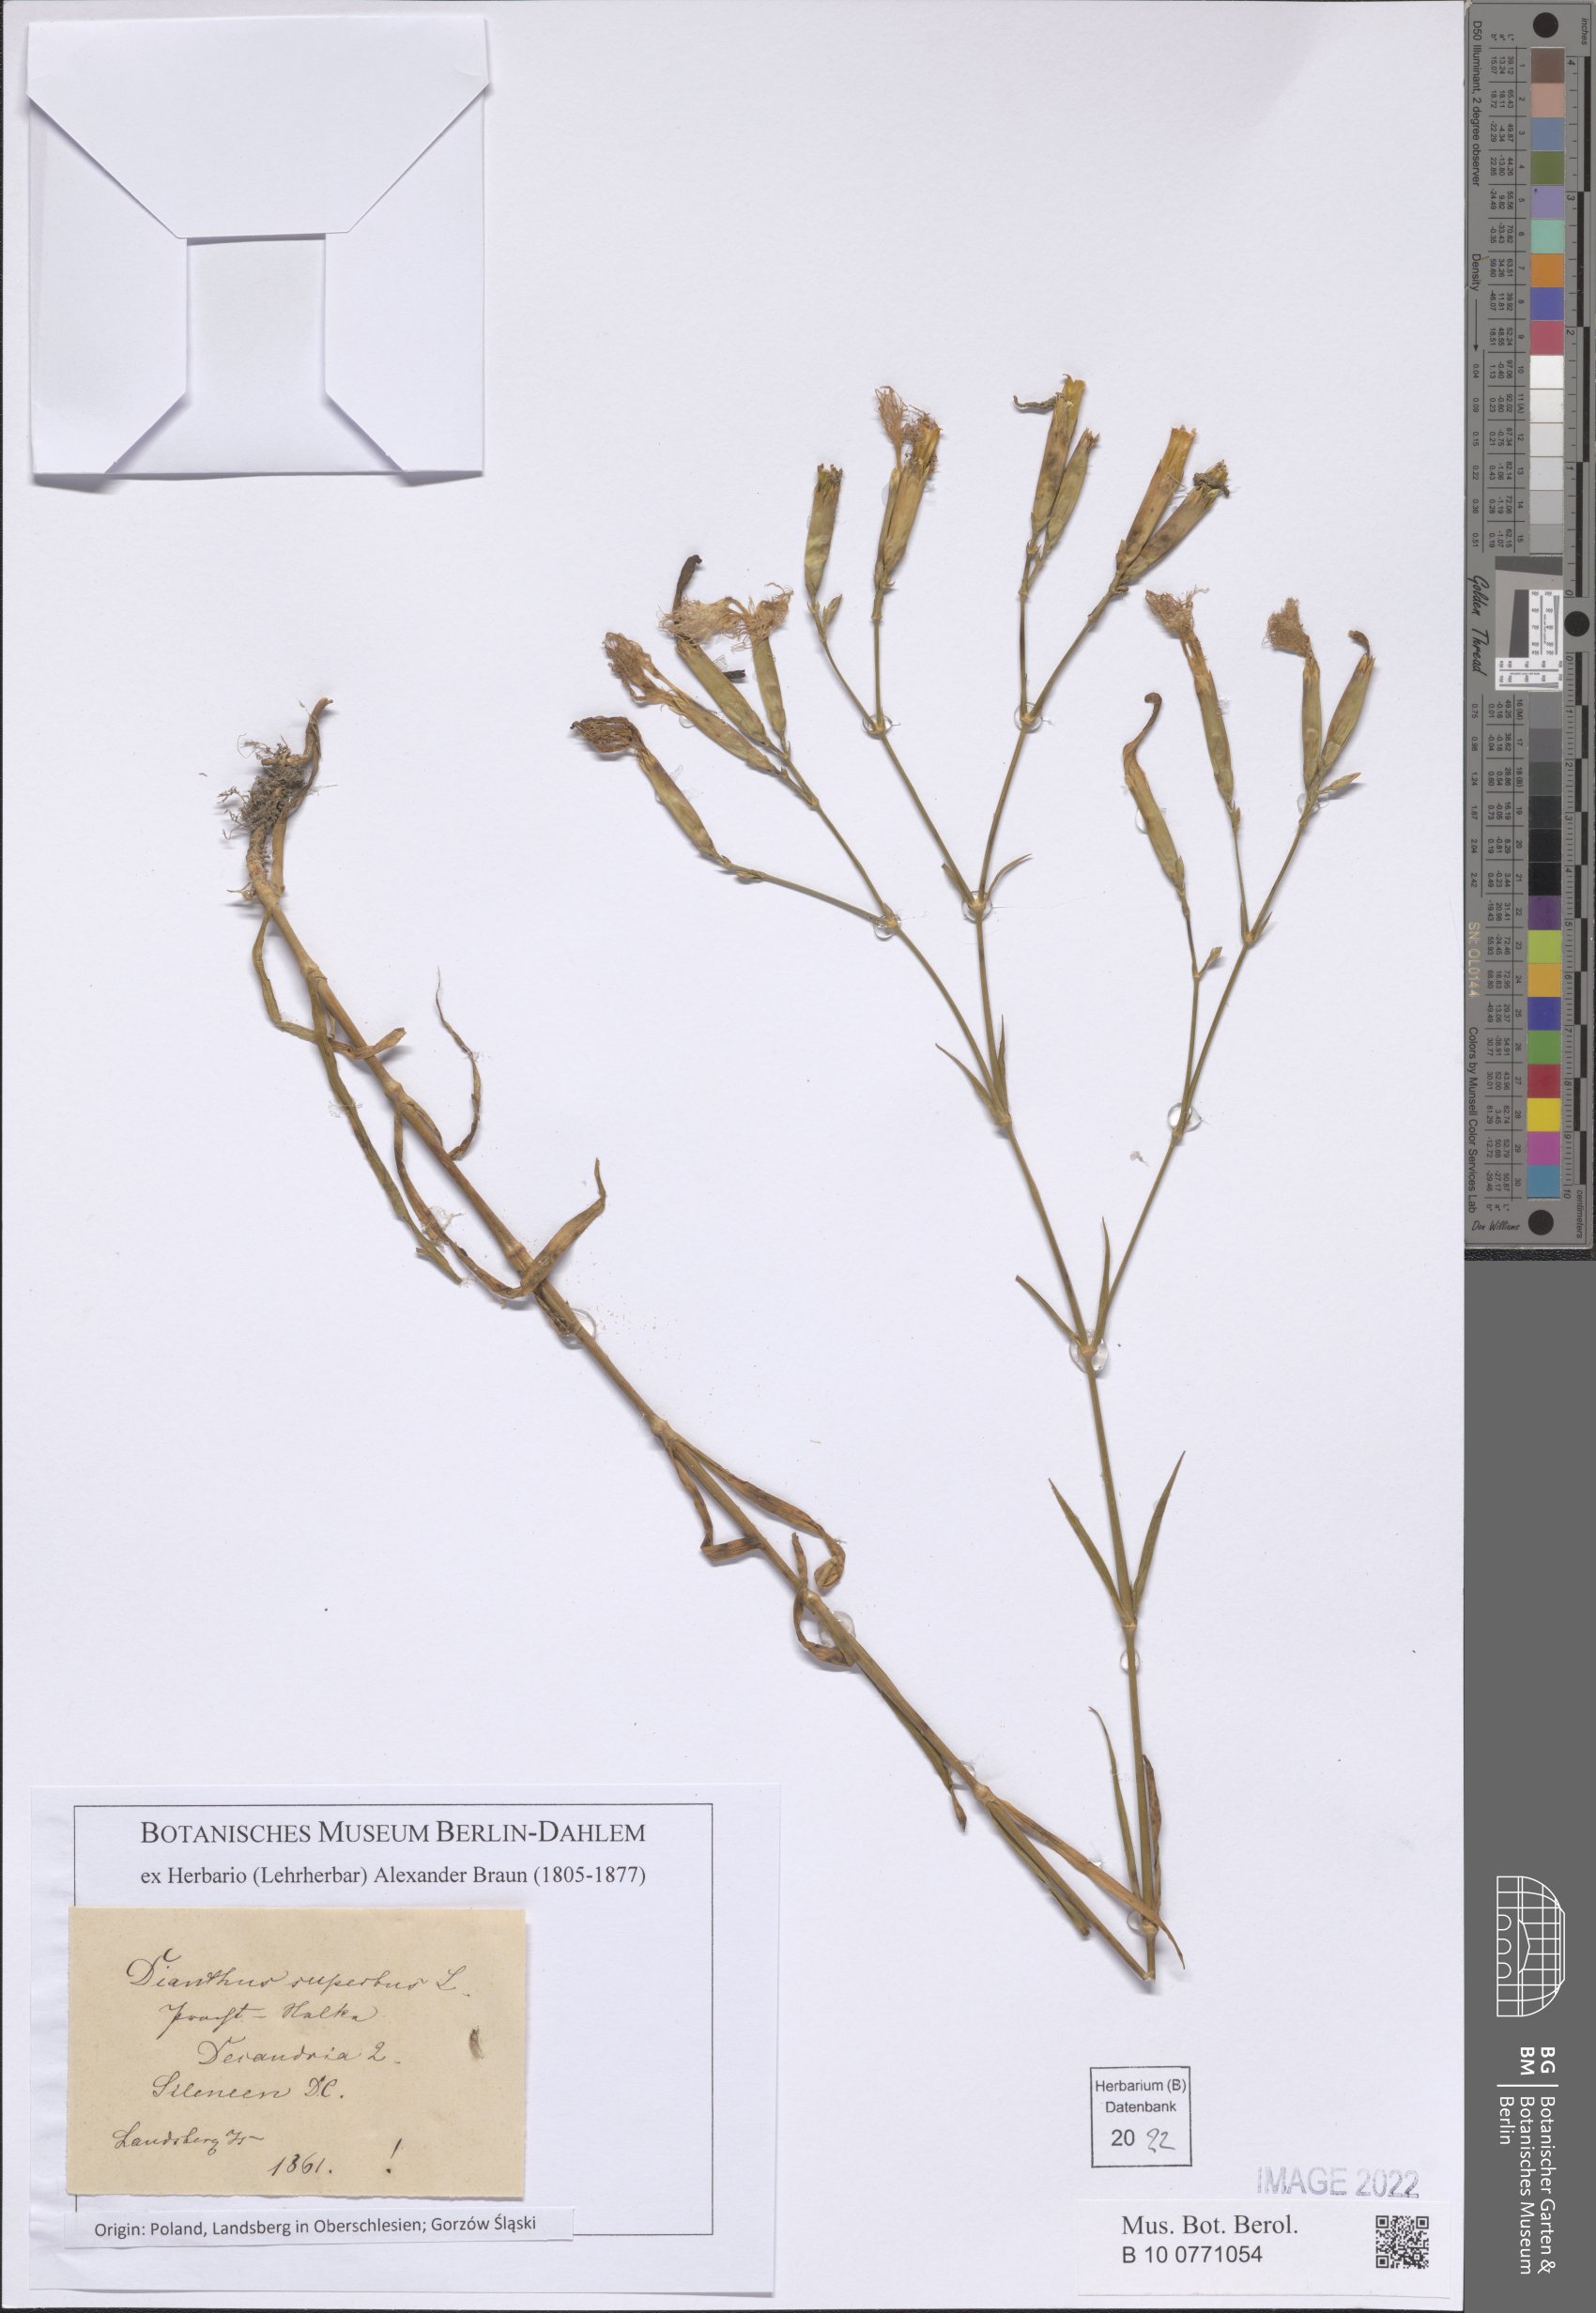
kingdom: Plantae
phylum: Tracheophyta
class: Magnoliopsida
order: Caryophyllales
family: Caryophyllaceae
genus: Dianthus
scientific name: Dianthus superbus
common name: Fringed pink
